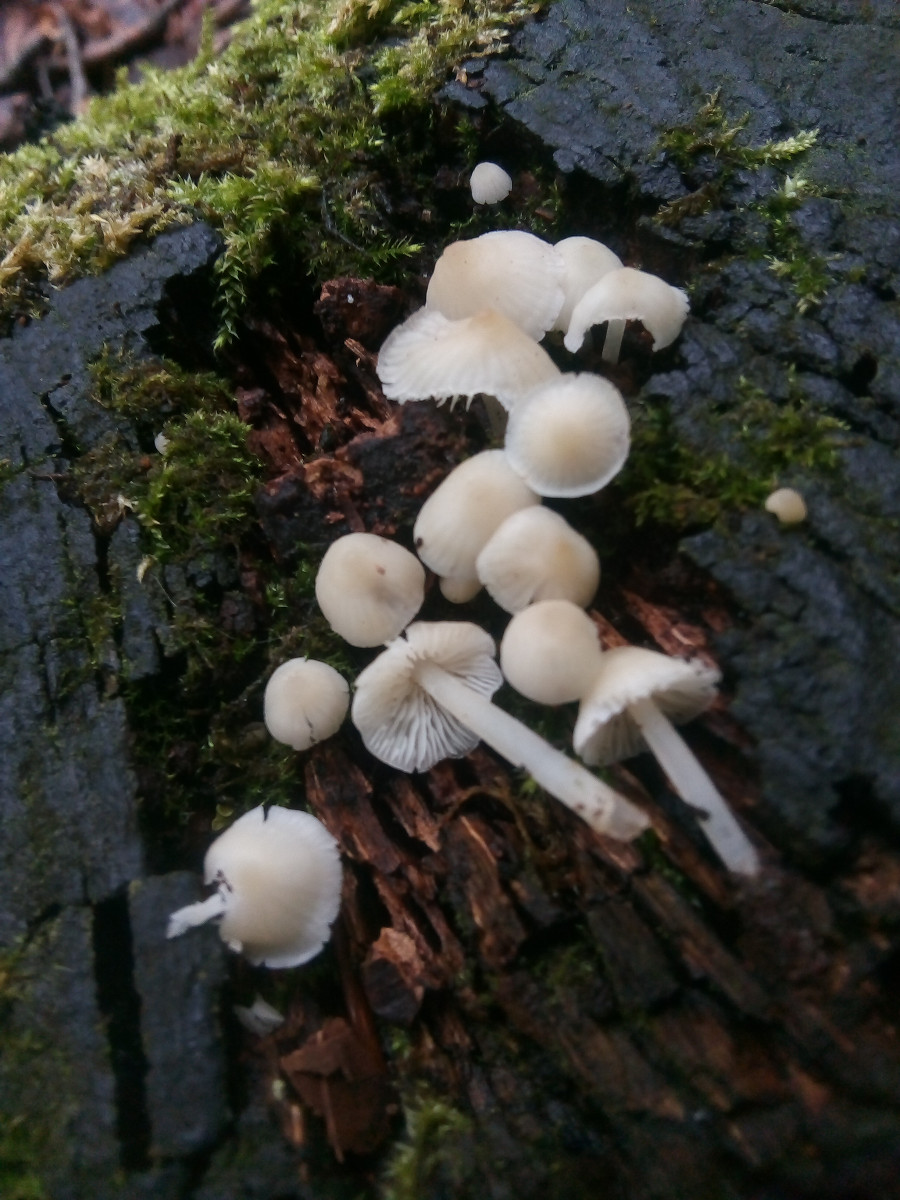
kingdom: Fungi
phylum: Basidiomycota
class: Agaricomycetes
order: Agaricales
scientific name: Agaricales
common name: champignonordenen
